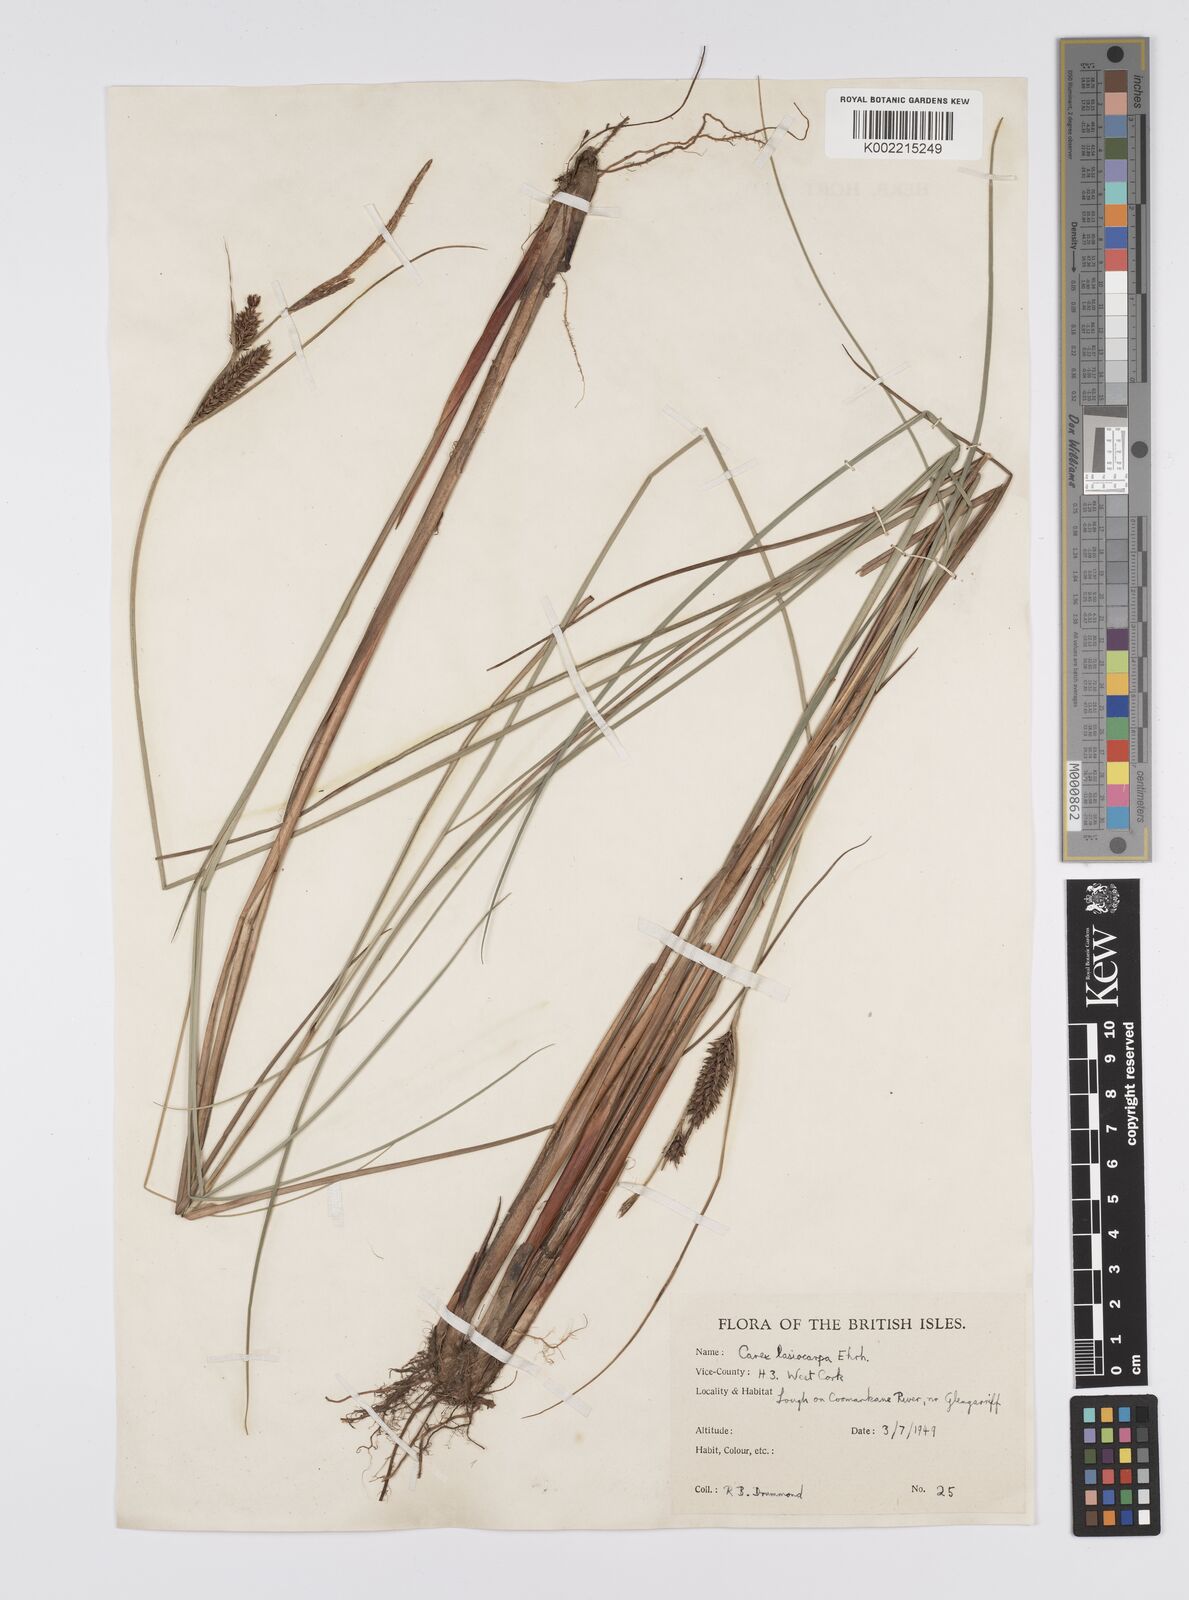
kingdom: Plantae
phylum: Tracheophyta
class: Liliopsida
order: Poales
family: Cyperaceae
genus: Carex
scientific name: Carex lasiocarpa
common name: Slender sedge
